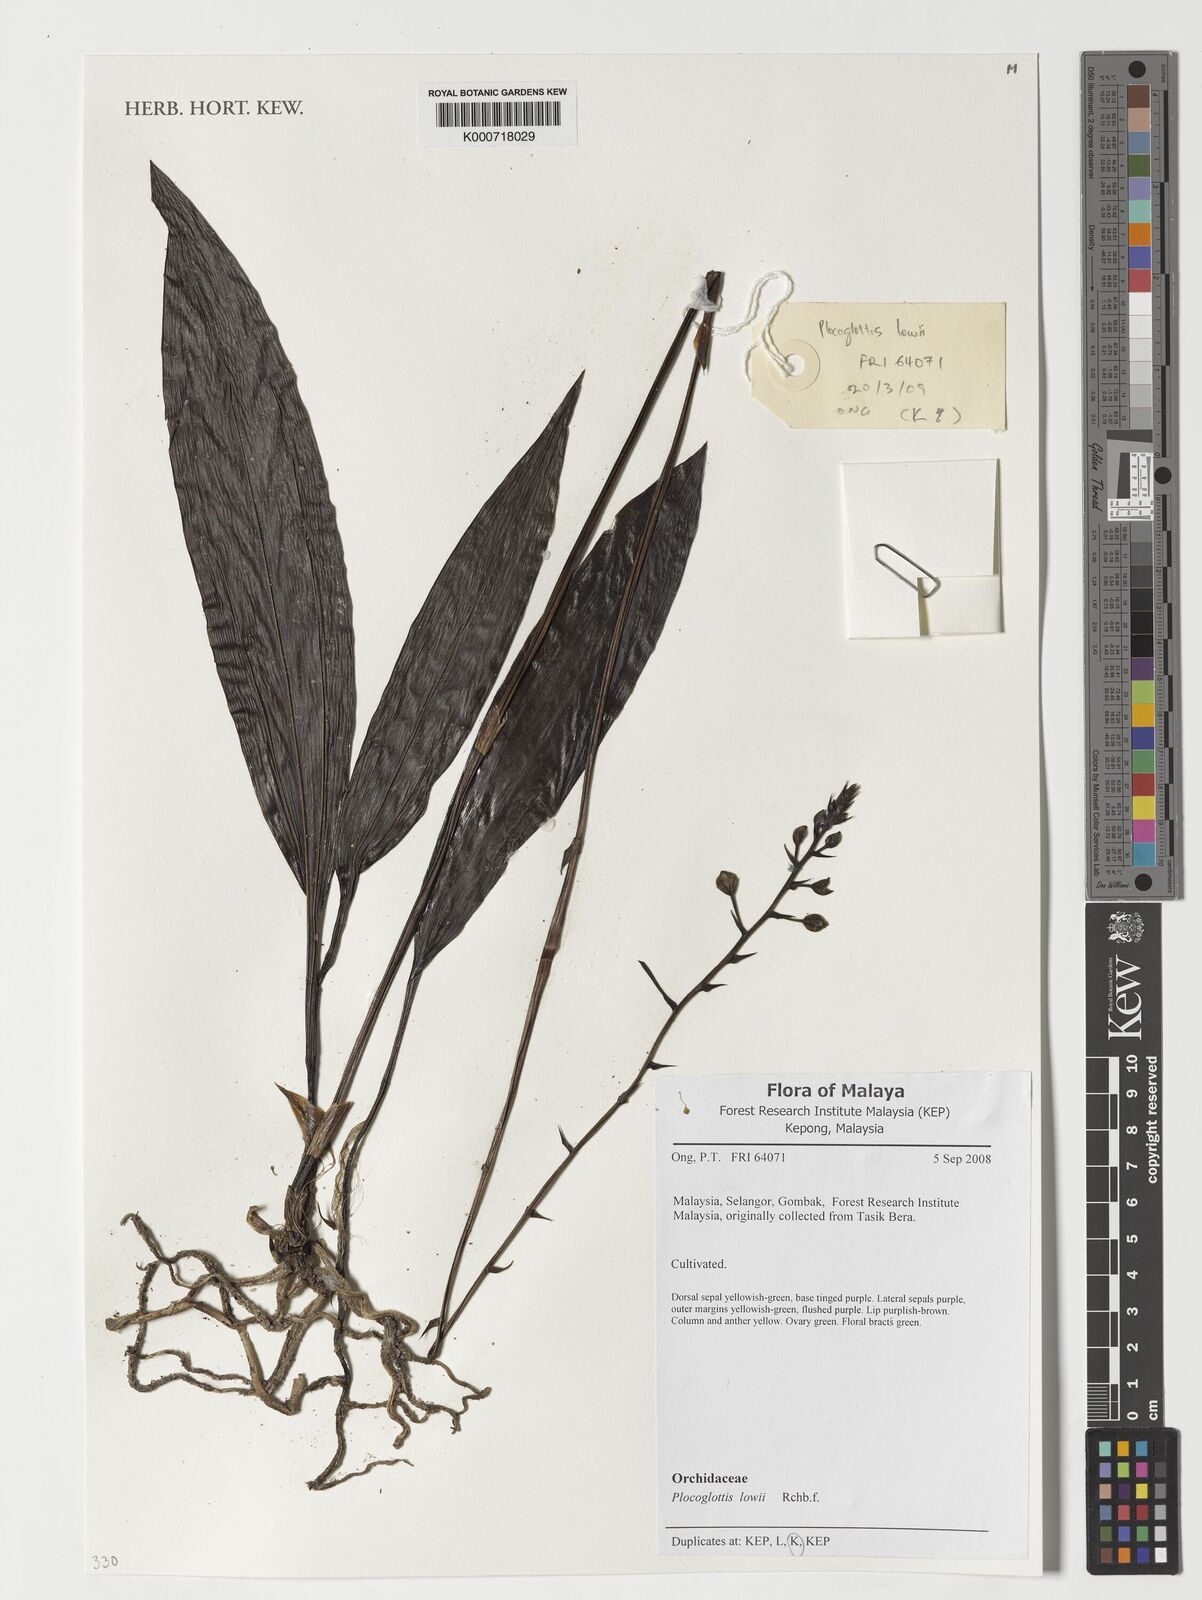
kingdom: Plantae
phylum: Tracheophyta
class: Liliopsida
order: Asparagales
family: Orchidaceae
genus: Plocoglottis
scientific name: Plocoglottis lowii
